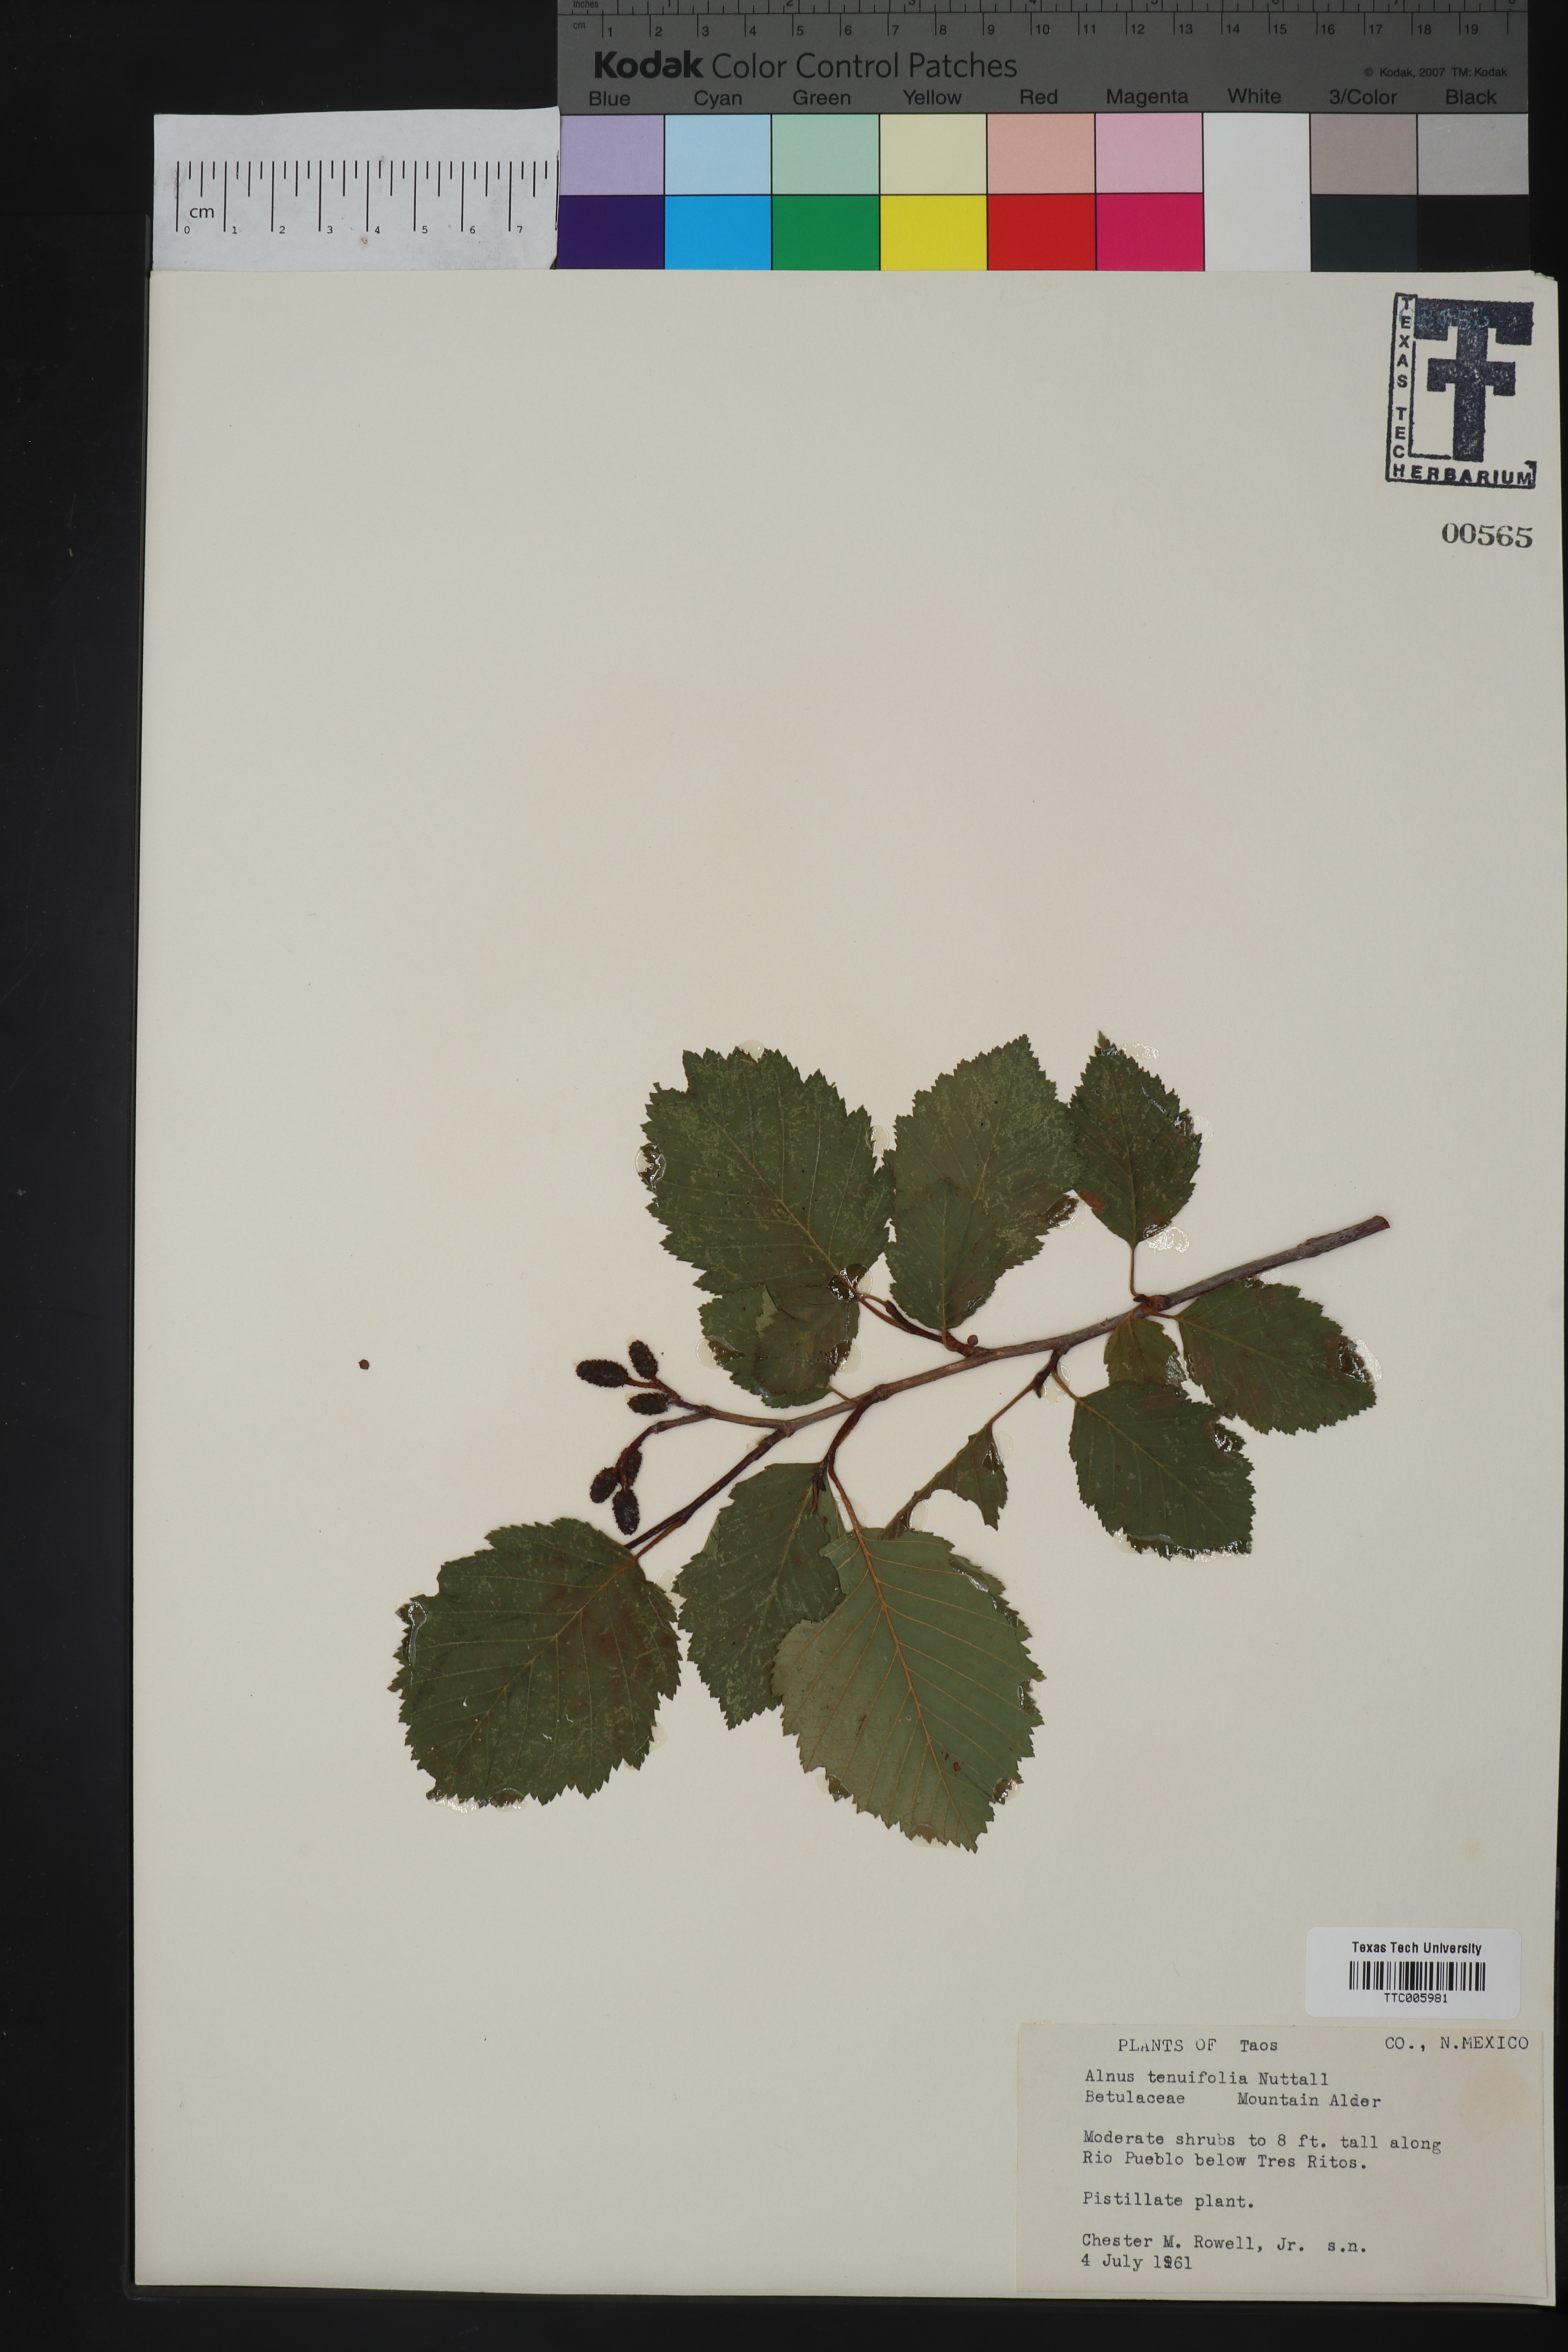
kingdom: Plantae
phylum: Tracheophyta
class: Magnoliopsida
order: Fagales
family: Betulaceae
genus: Alnus
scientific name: Alnus incana
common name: Grey alder
